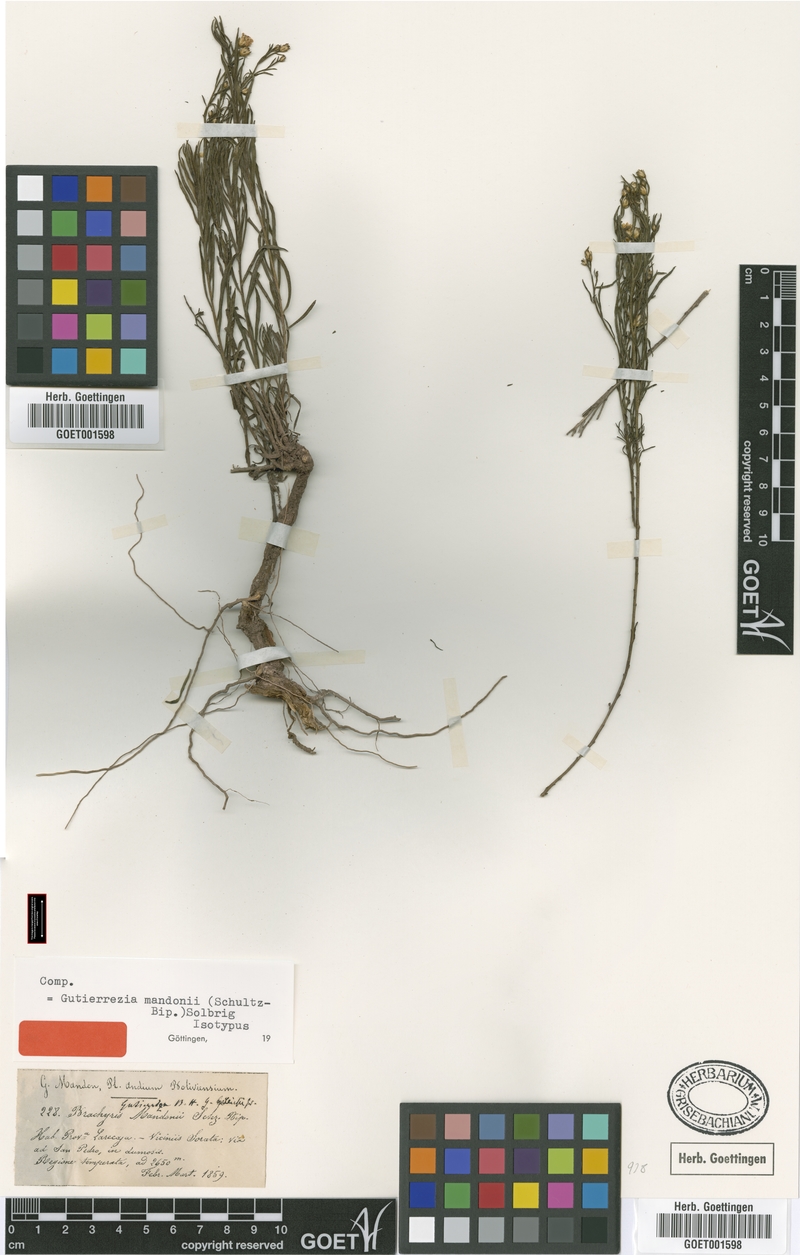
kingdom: Plantae
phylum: Tracheophyta
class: Magnoliopsida
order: Asterales
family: Asteraceae
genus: Gutierrezia
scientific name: Gutierrezia mandonii
